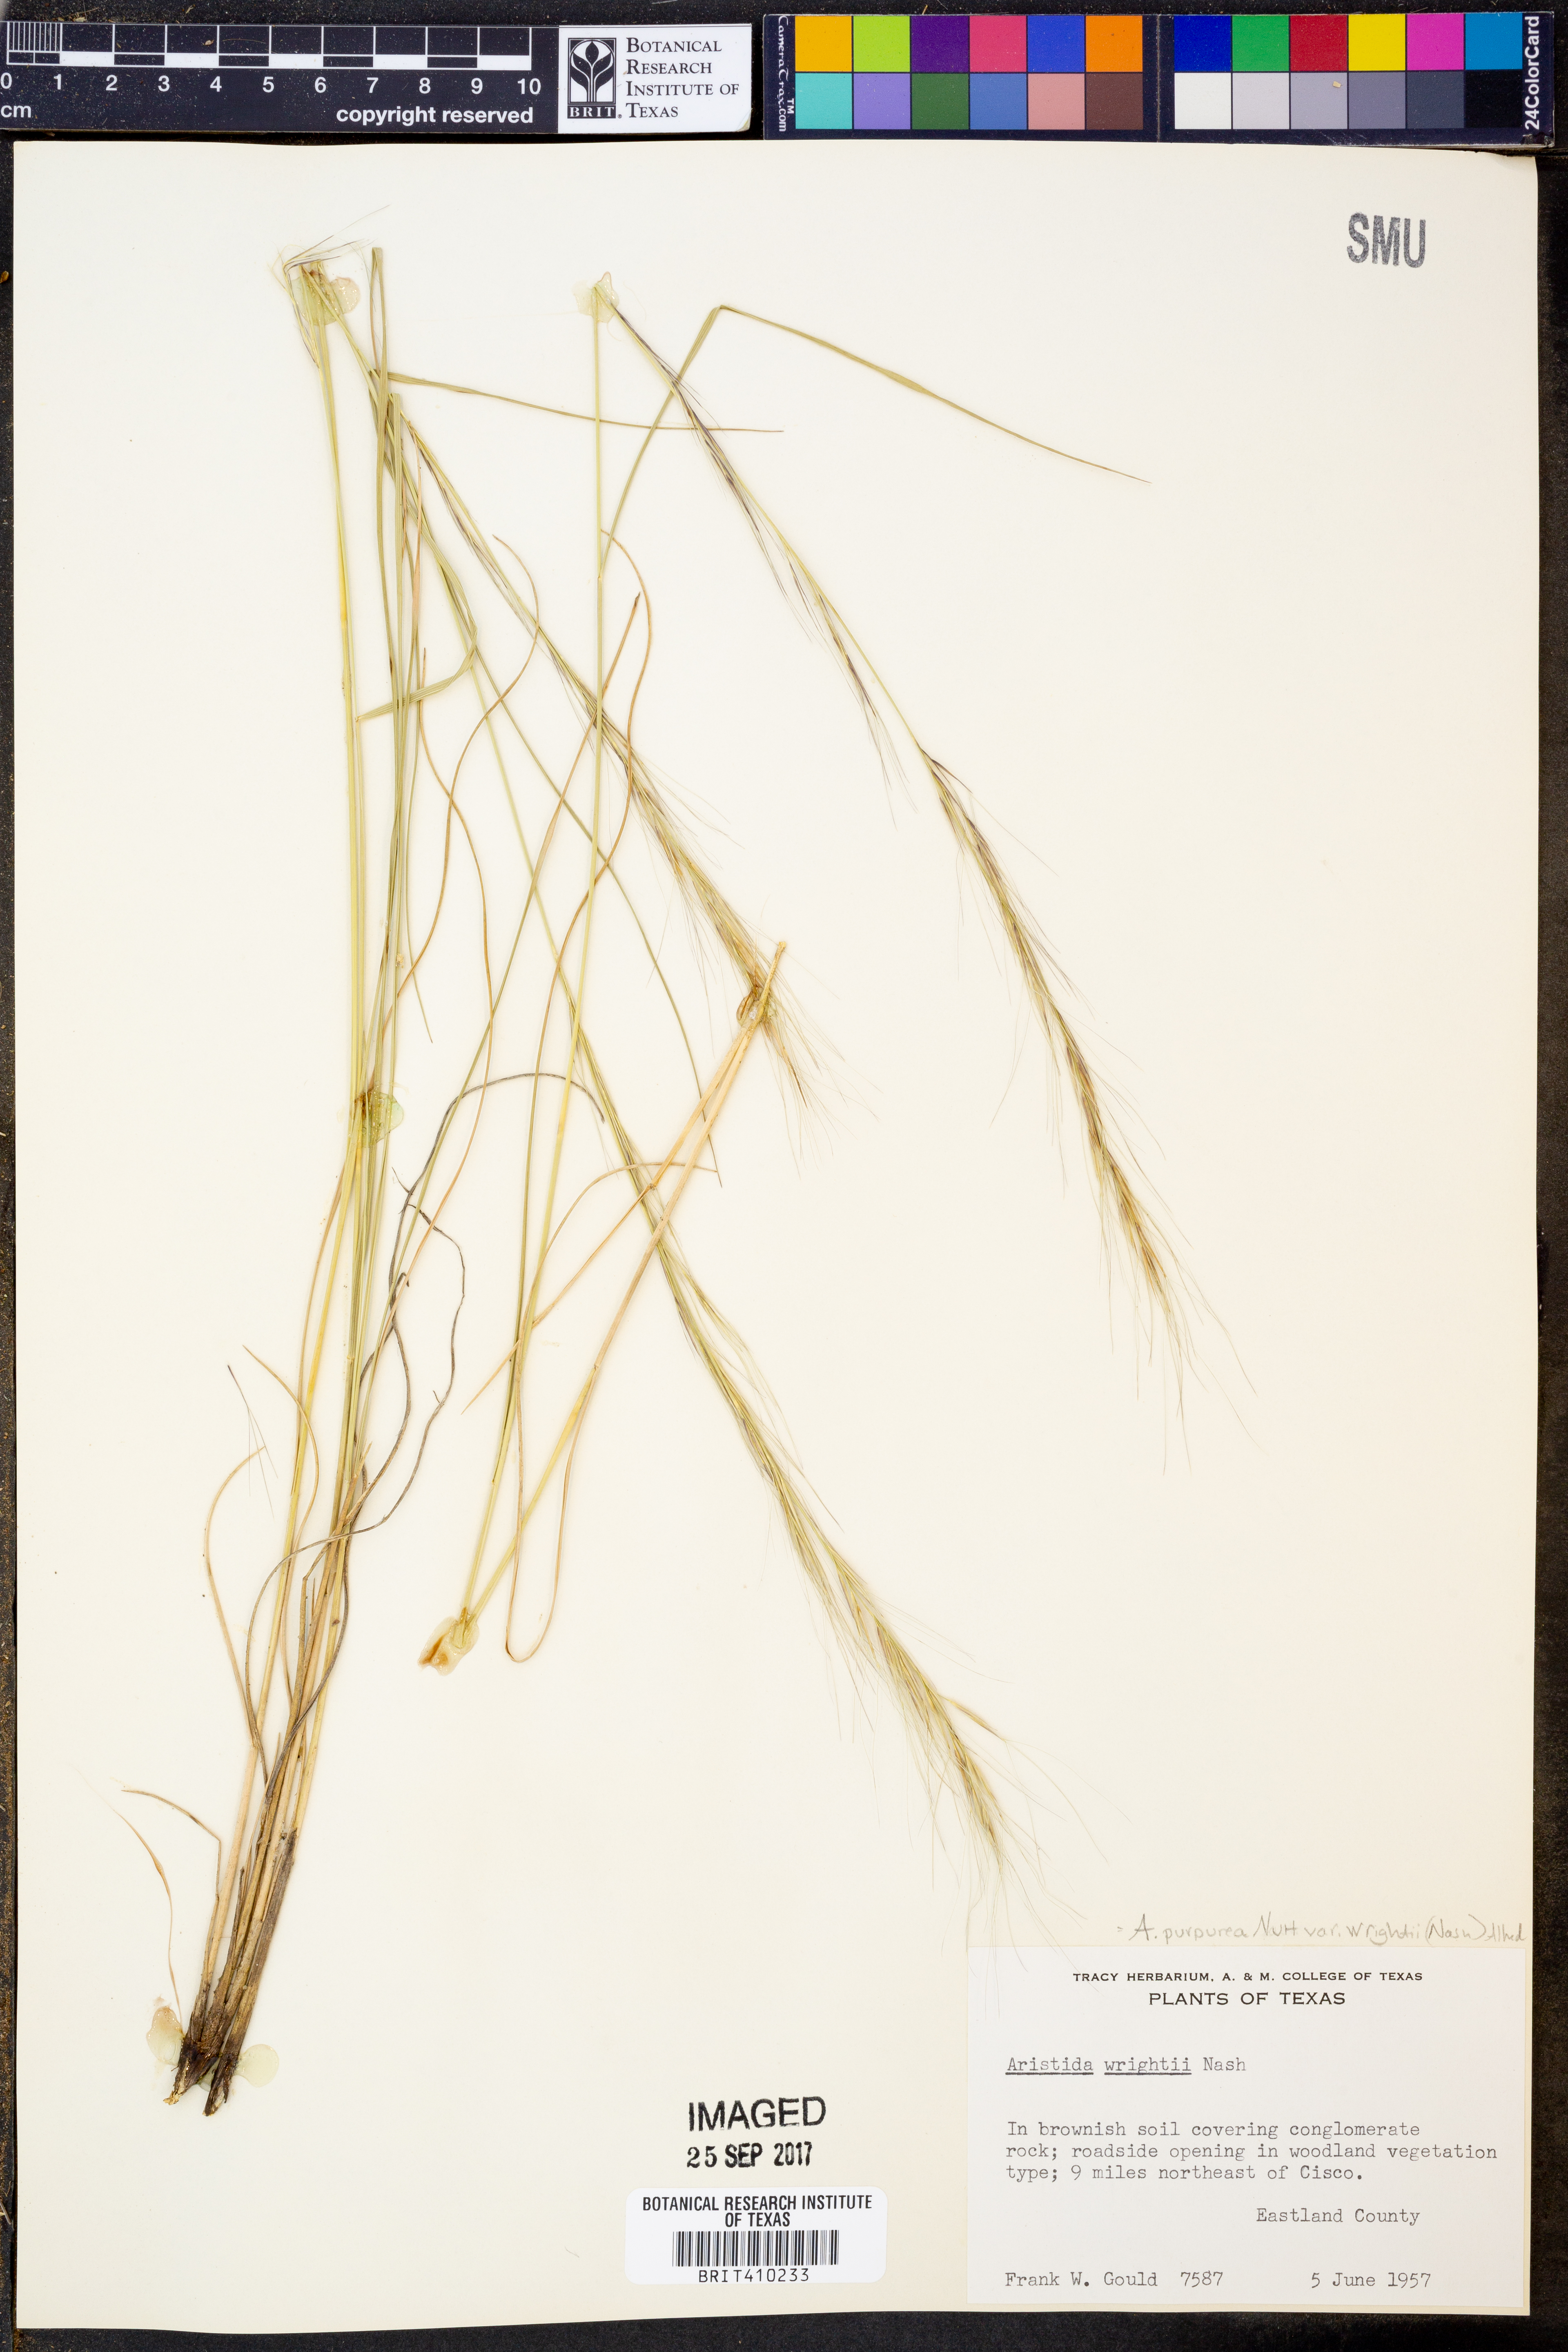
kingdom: Plantae
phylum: Tracheophyta
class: Liliopsida
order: Poales
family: Poaceae
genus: Aristida
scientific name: Aristida wrightii
